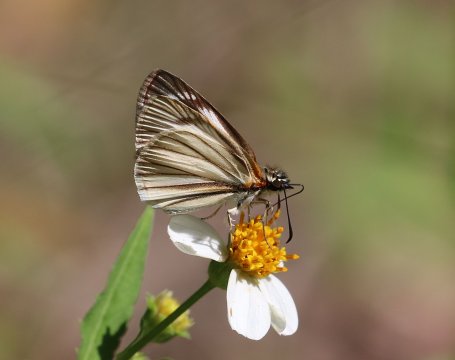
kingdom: Animalia
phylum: Arthropoda
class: Insecta
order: Lepidoptera
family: Hesperiidae
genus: Heliopetes
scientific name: Heliopetes arsalte
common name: Veined White-Skipper
